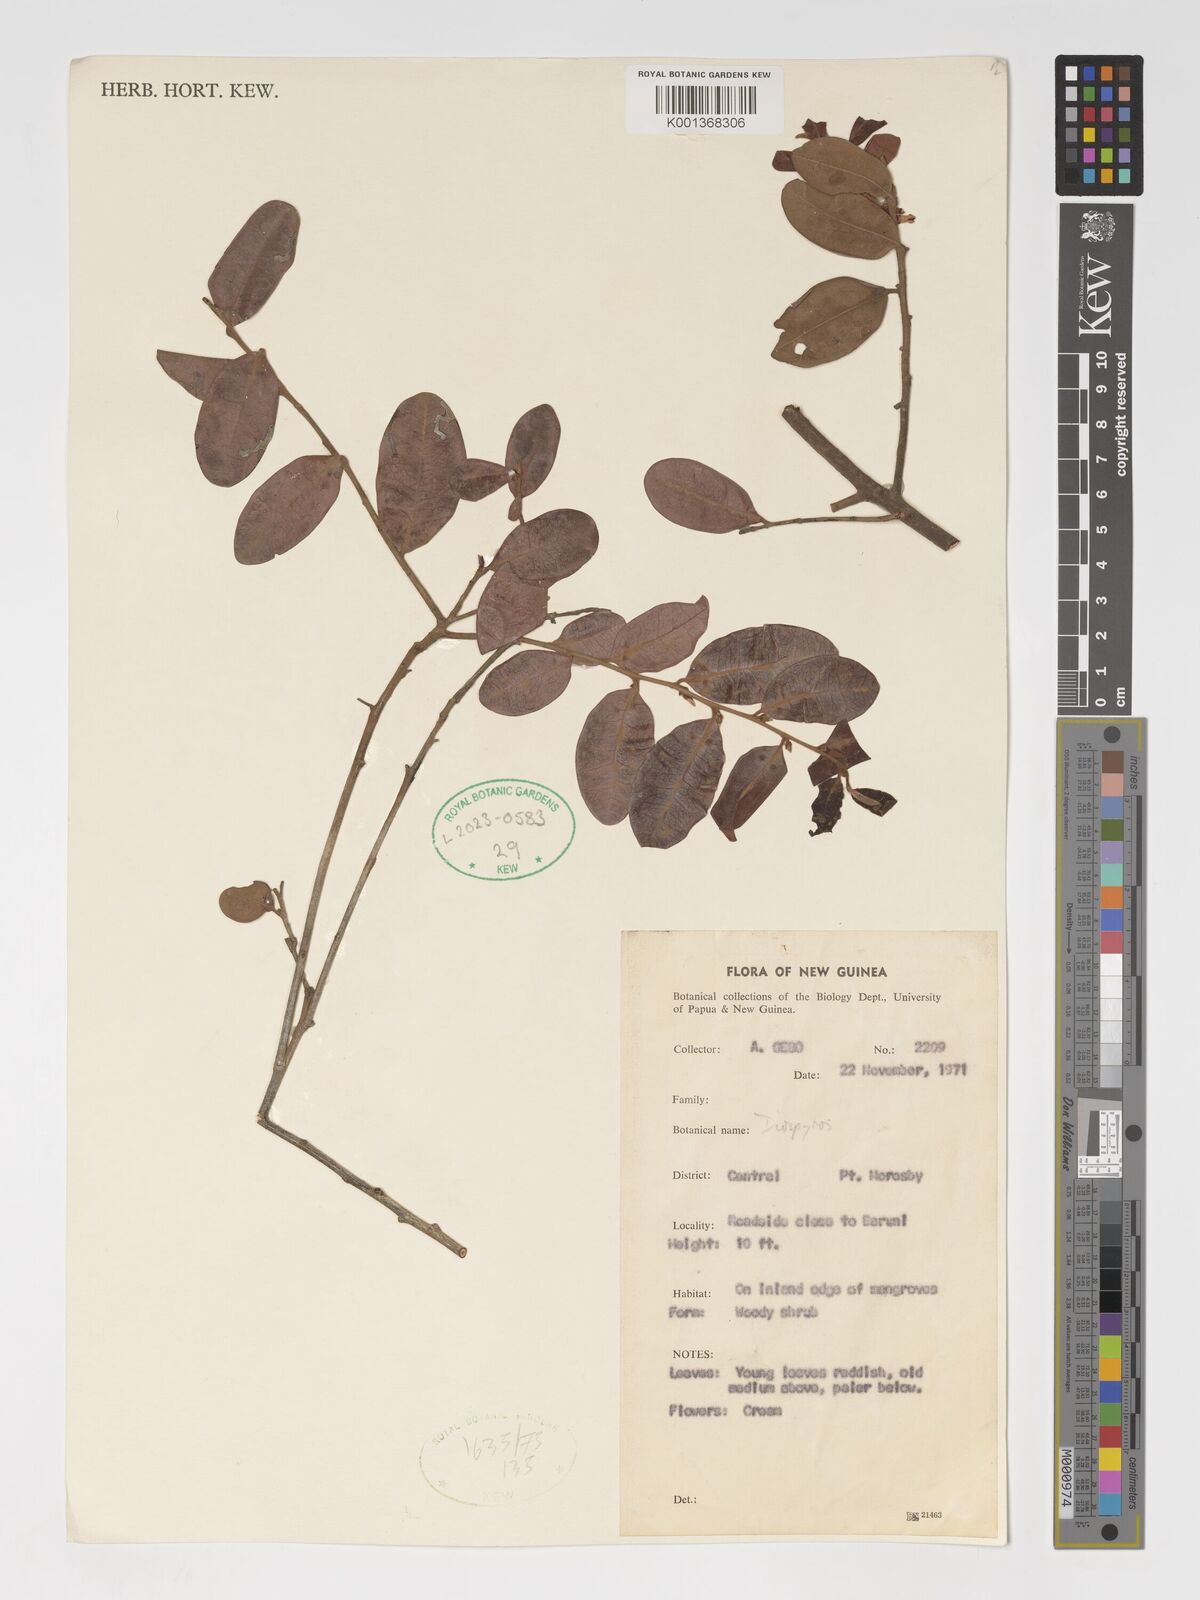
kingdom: Plantae
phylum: Tracheophyta
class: Magnoliopsida
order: Ericales
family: Ebenaceae
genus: Diospyros
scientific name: Diospyros
